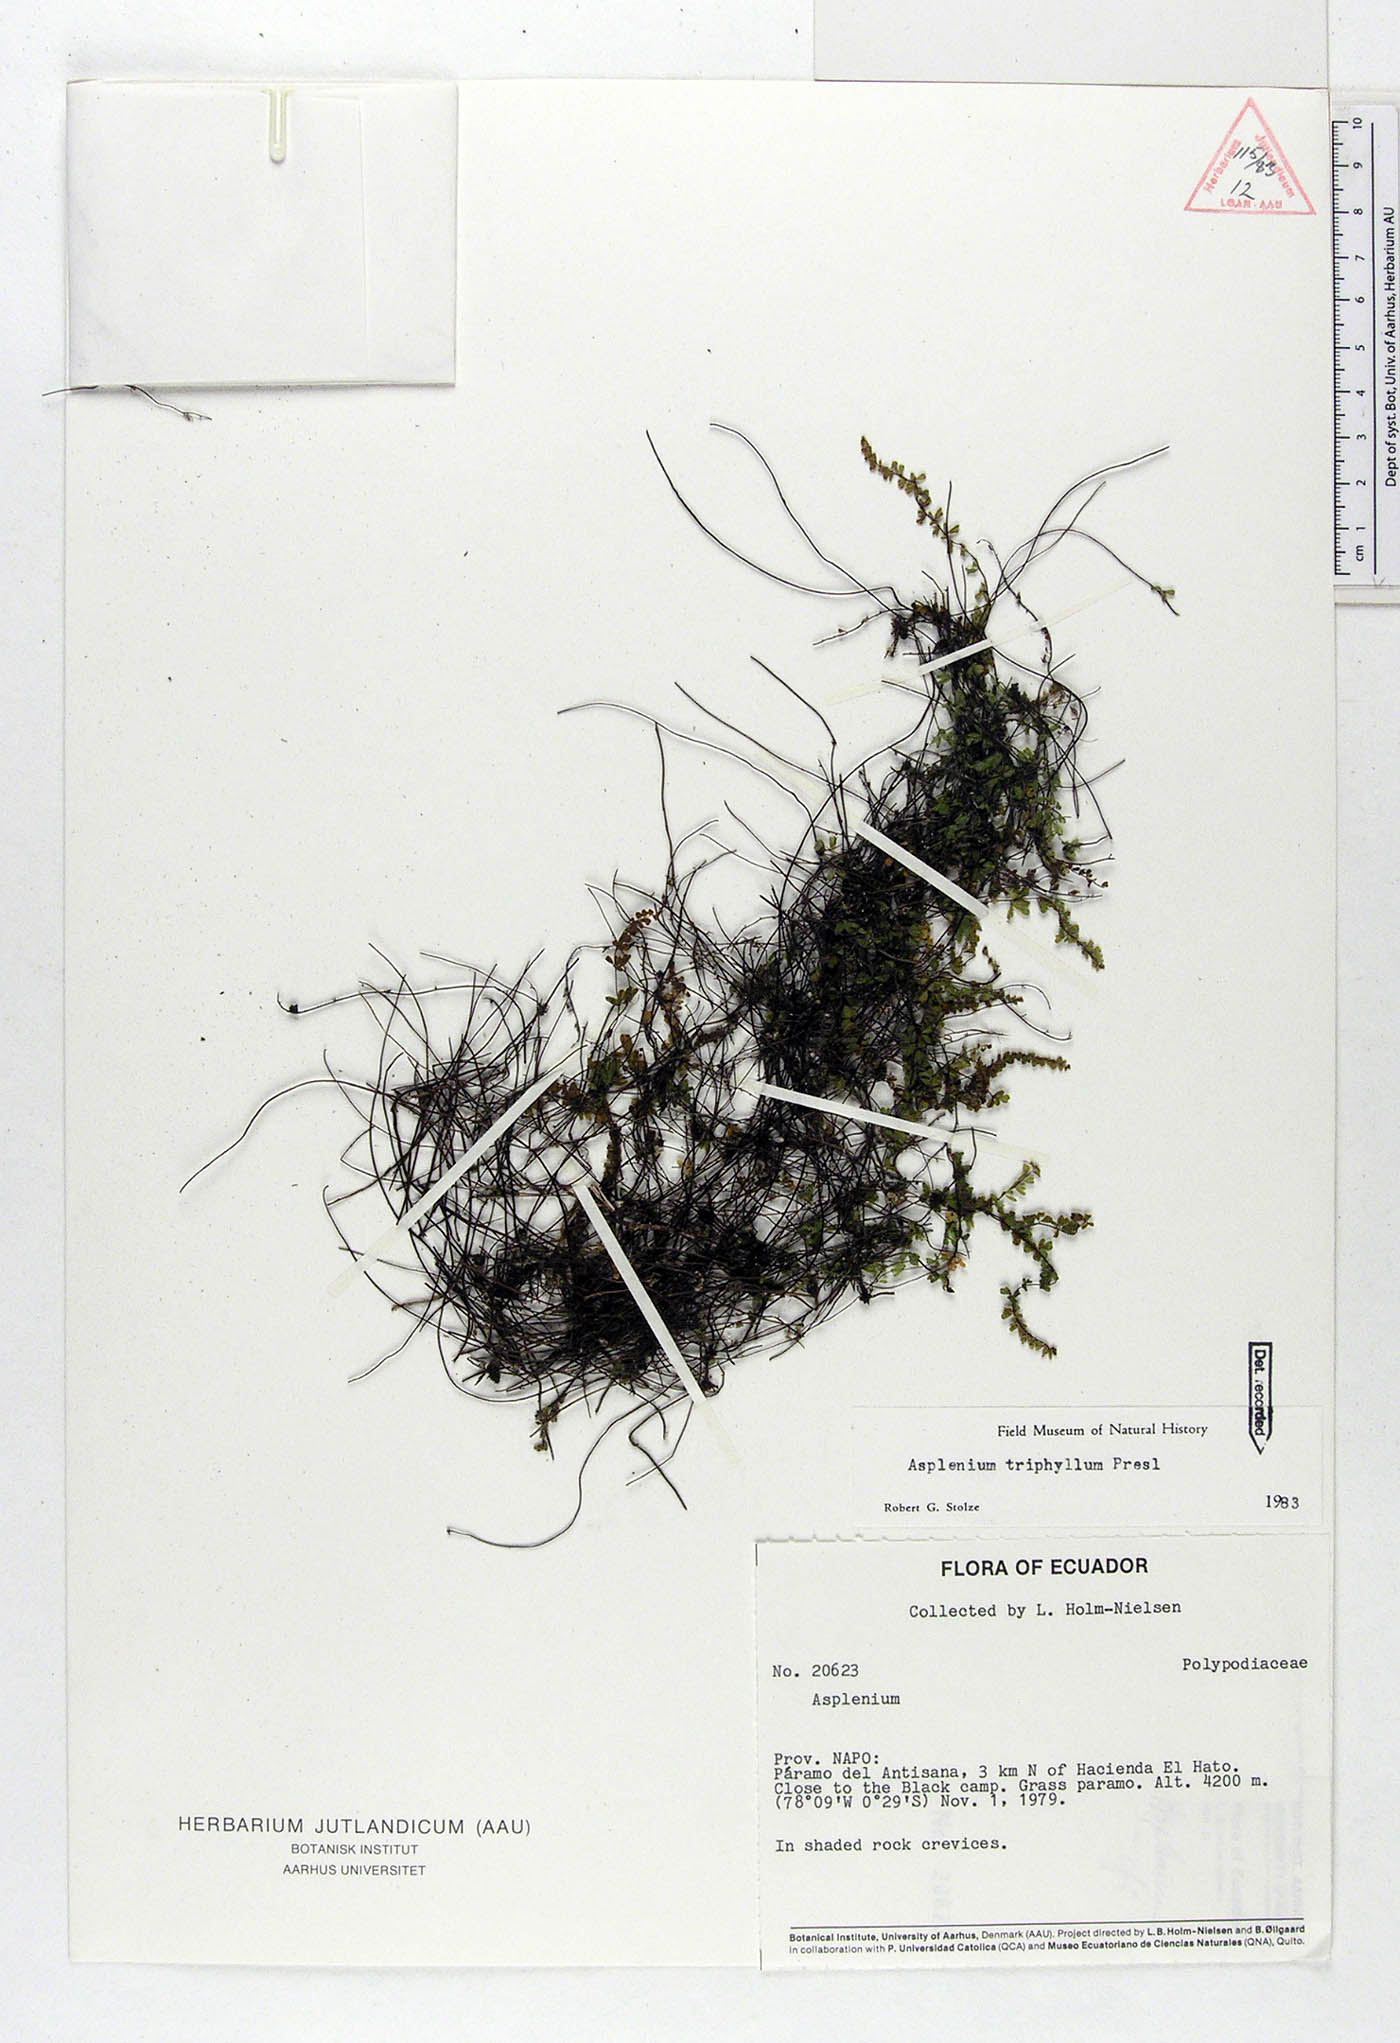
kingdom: Plantae
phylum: Tracheophyta
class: Polypodiopsida
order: Polypodiales
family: Aspleniaceae
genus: Asplenium
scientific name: Asplenium triphyllum
